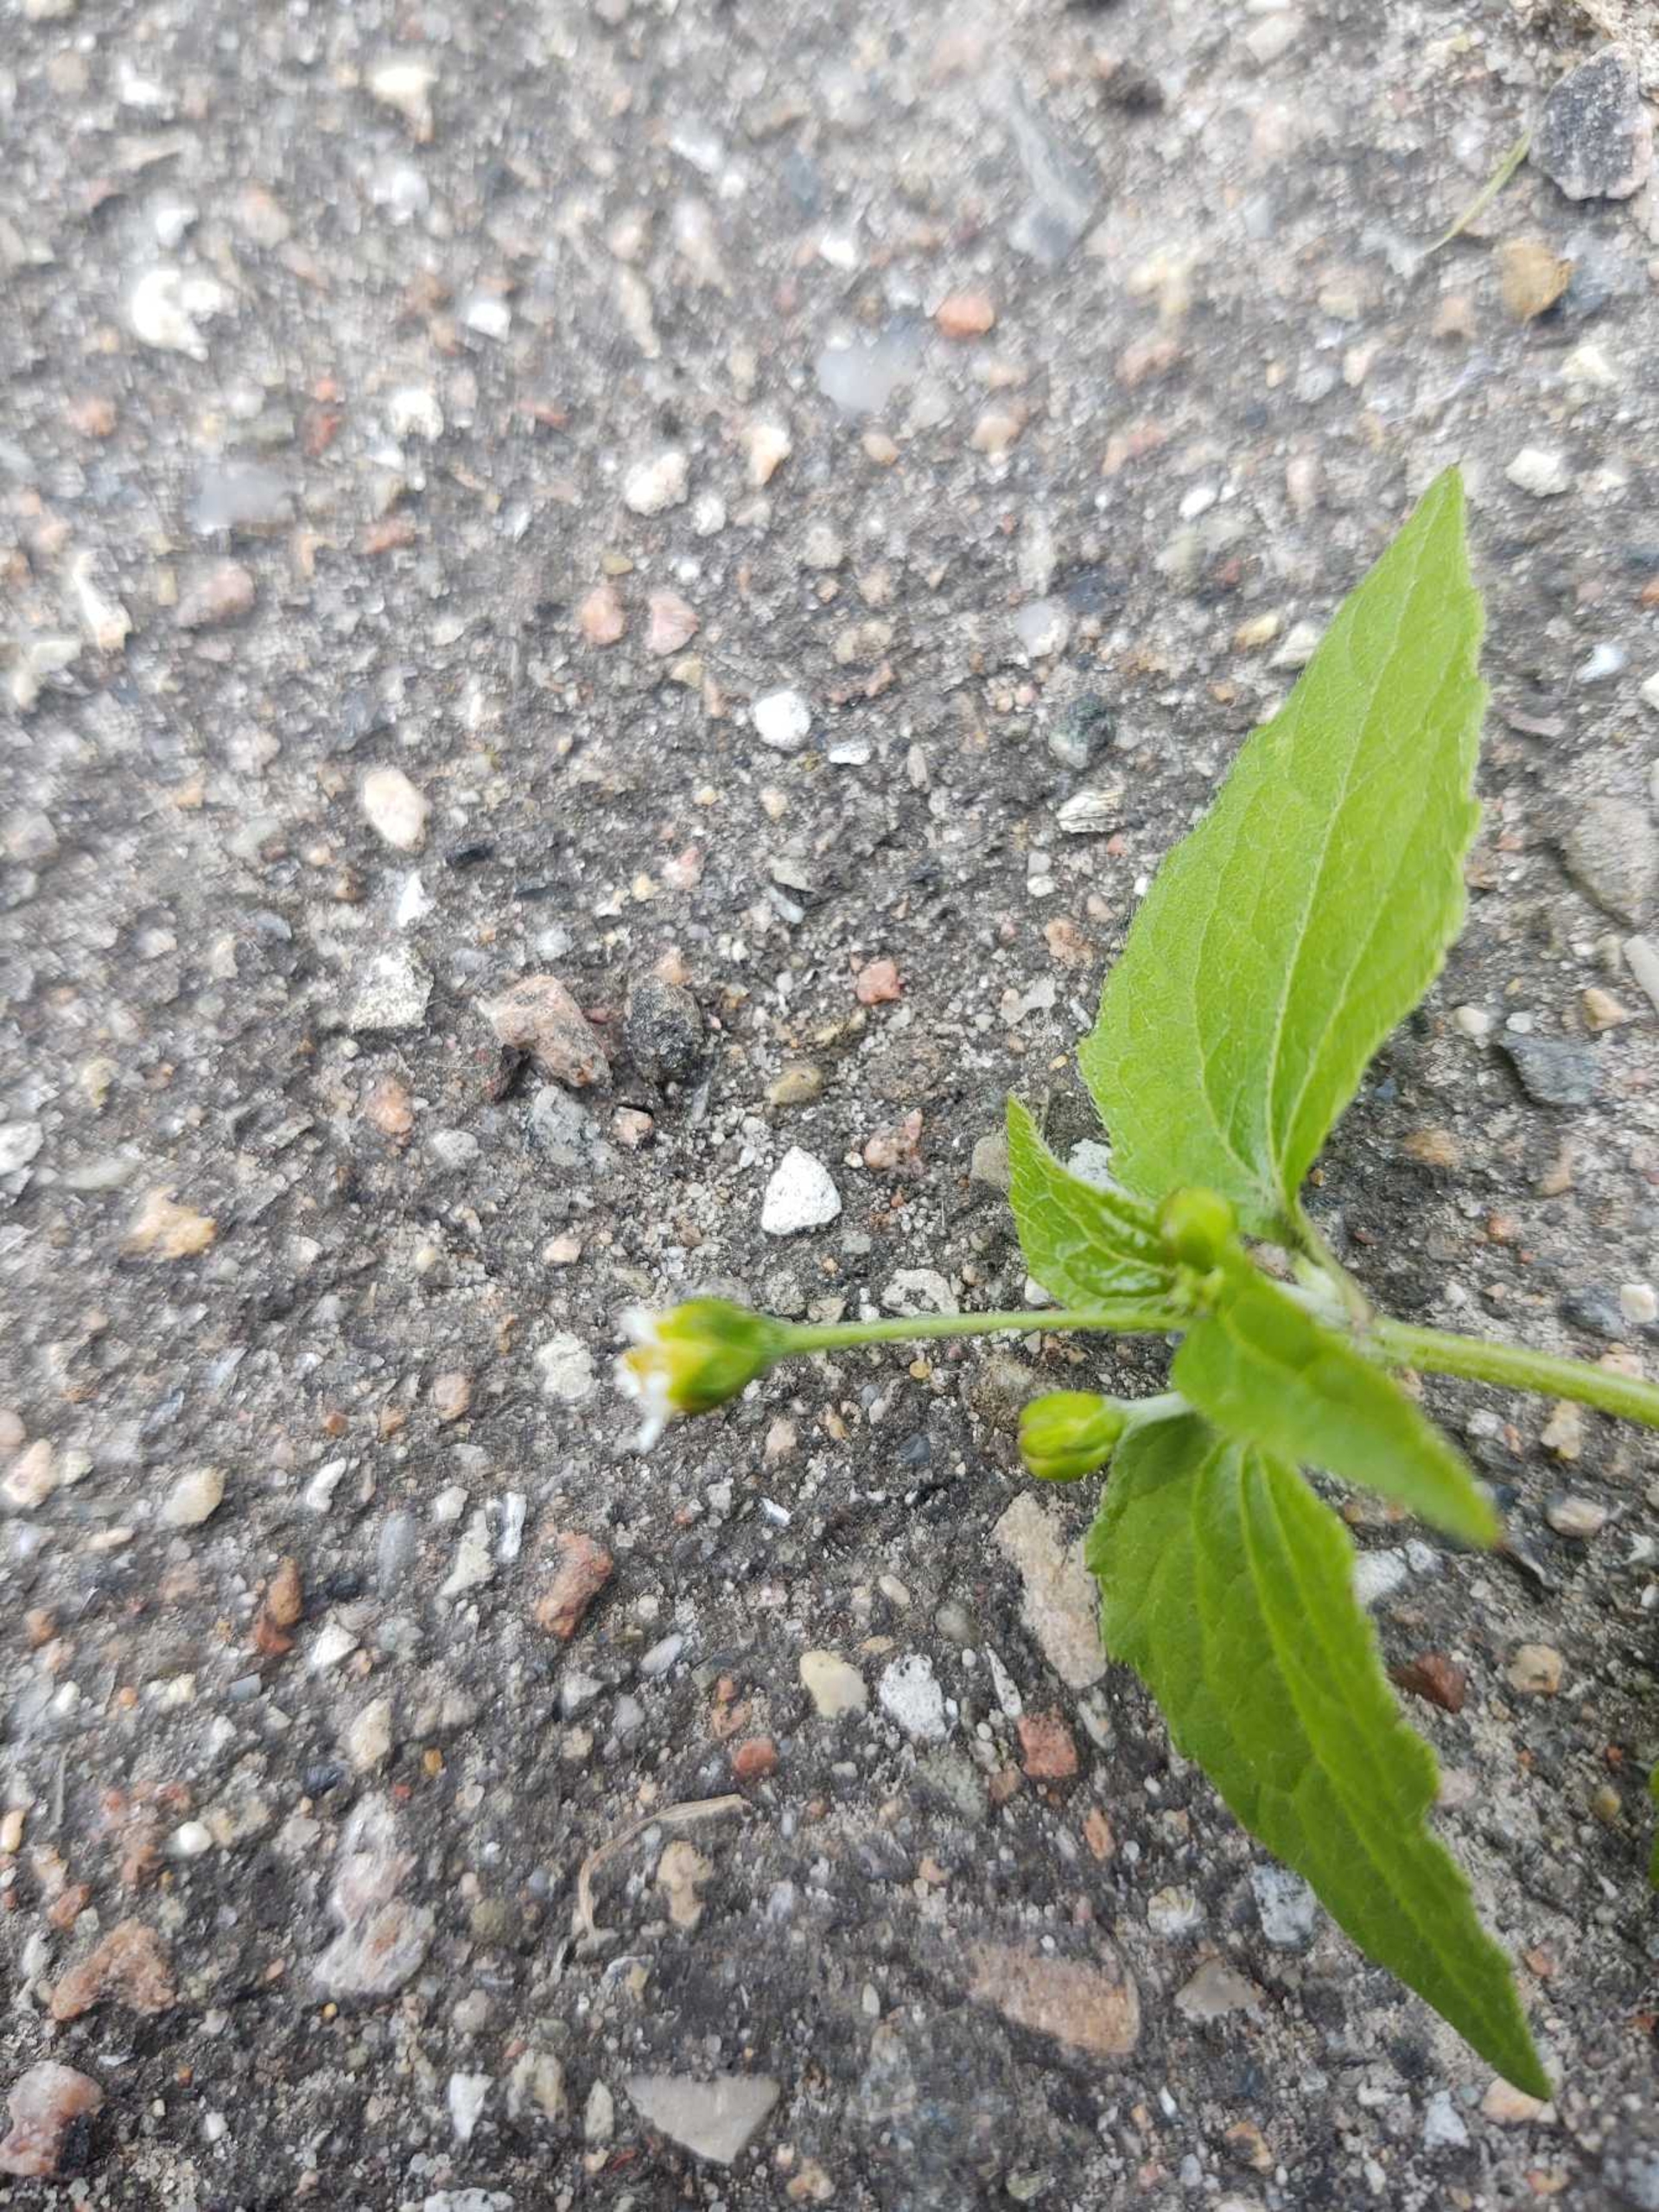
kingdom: Plantae
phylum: Tracheophyta
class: Magnoliopsida
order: Asterales
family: Asteraceae
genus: Galinsoga
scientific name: Galinsoga parviflora
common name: Håret kortstråle
